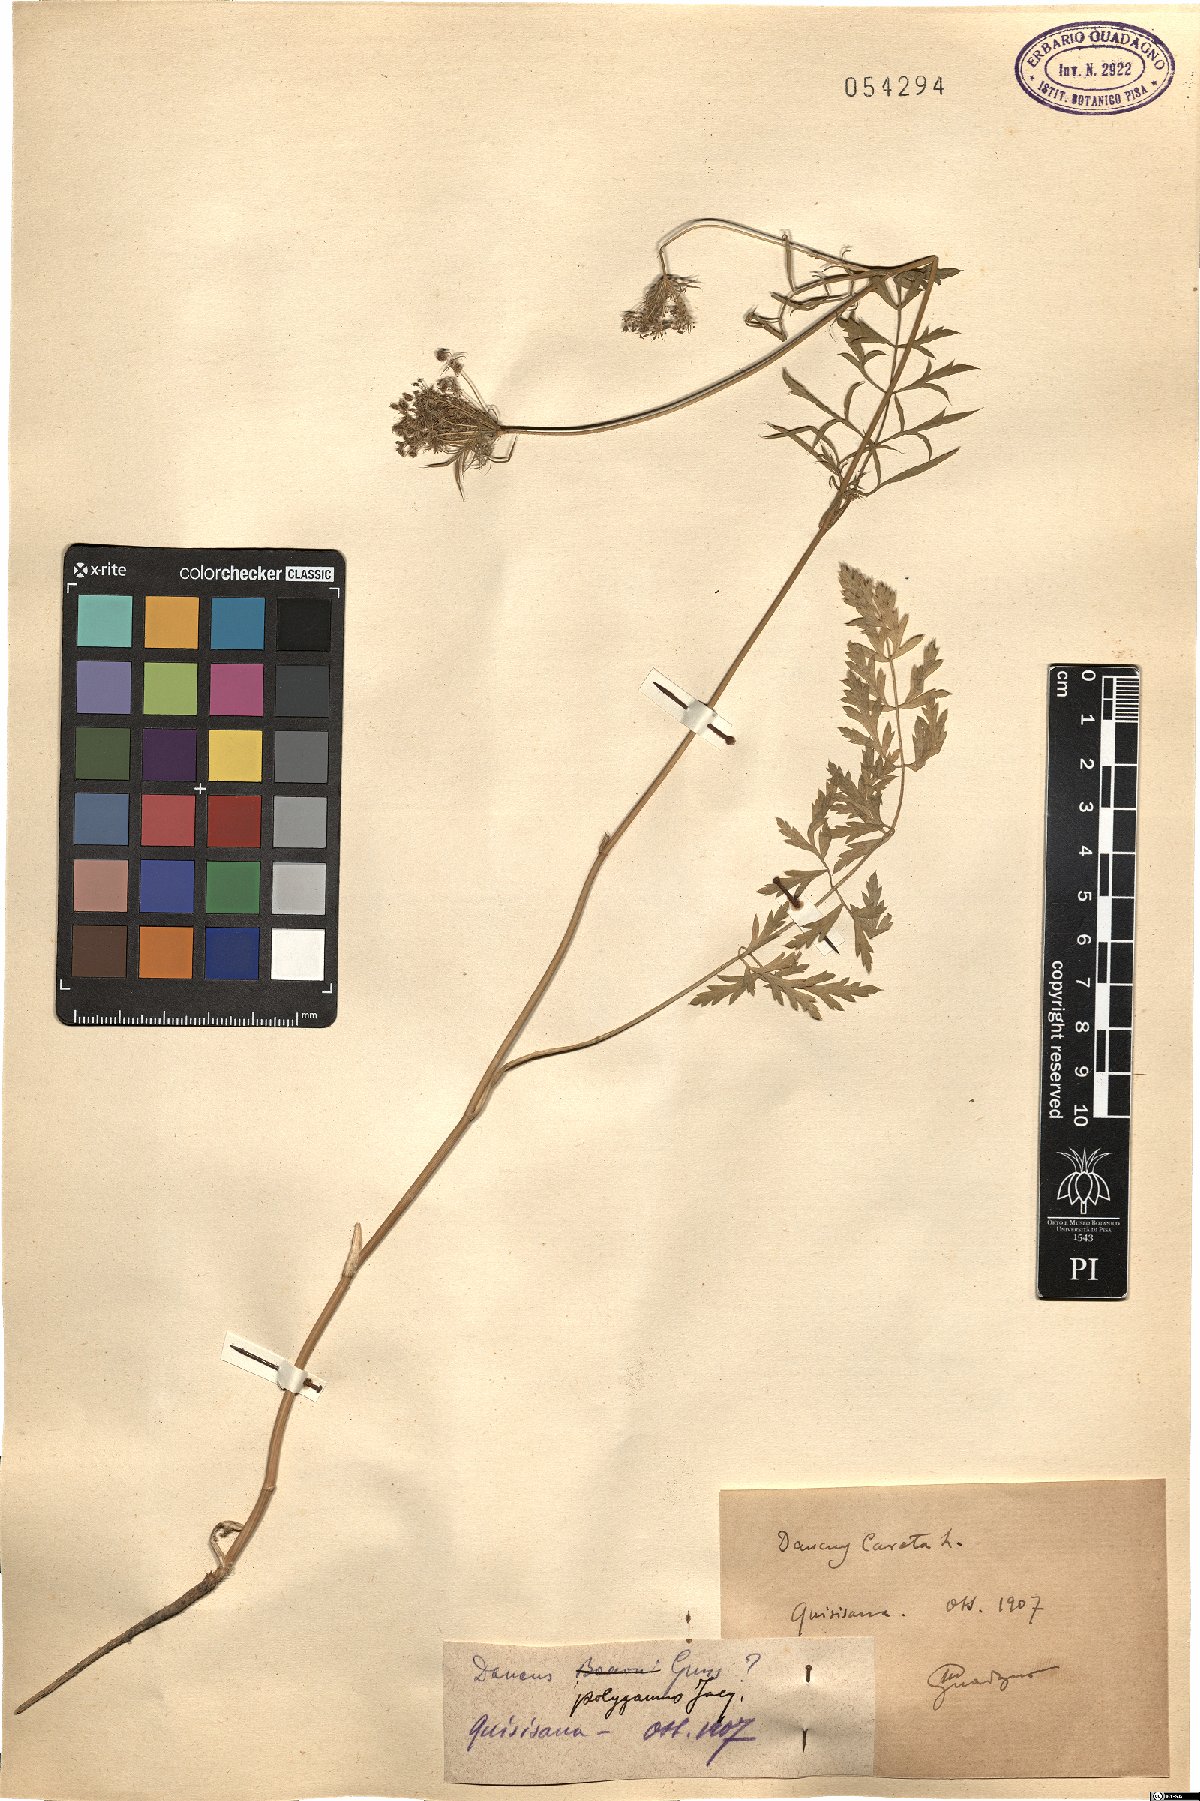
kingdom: Plantae
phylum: Tracheophyta
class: Magnoliopsida
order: Apiales
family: Apiaceae
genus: Daucus
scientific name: Daucus carota
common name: Wild carrot
